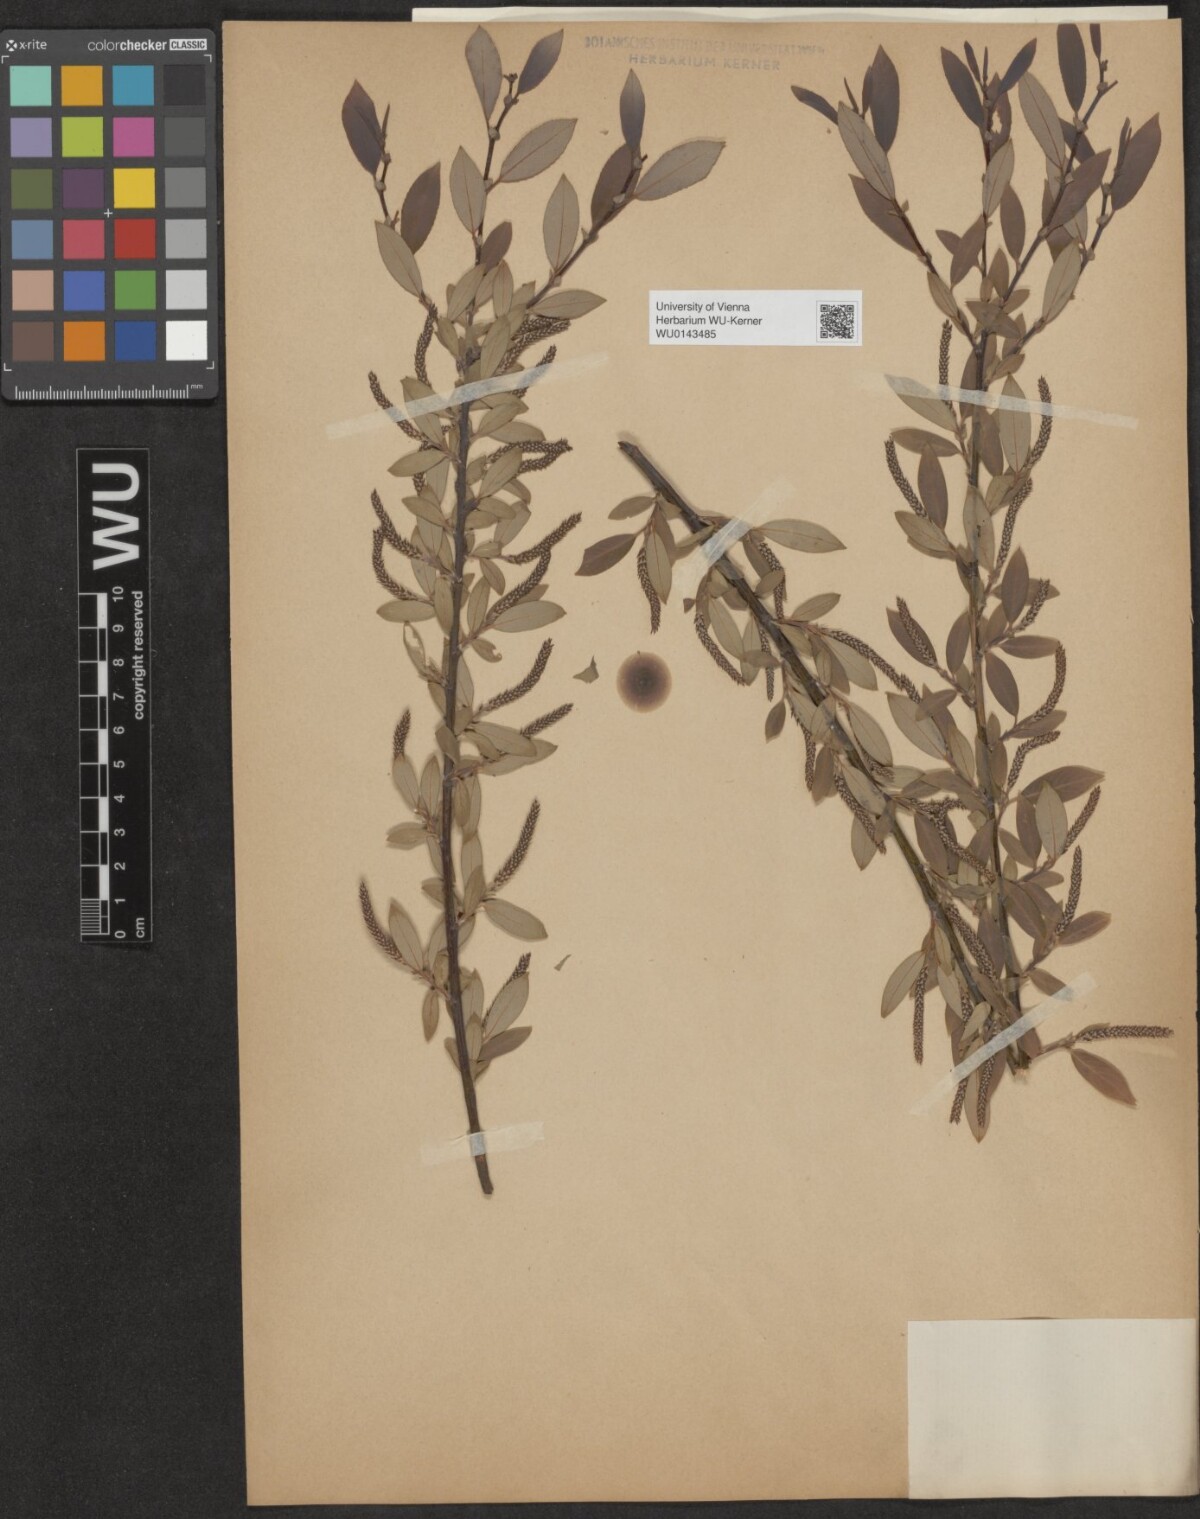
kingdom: Plantae
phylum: Tracheophyta
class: Magnoliopsida
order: Malpighiales
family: Salicaceae
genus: Salix
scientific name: Salix triandra
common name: Almond willow
